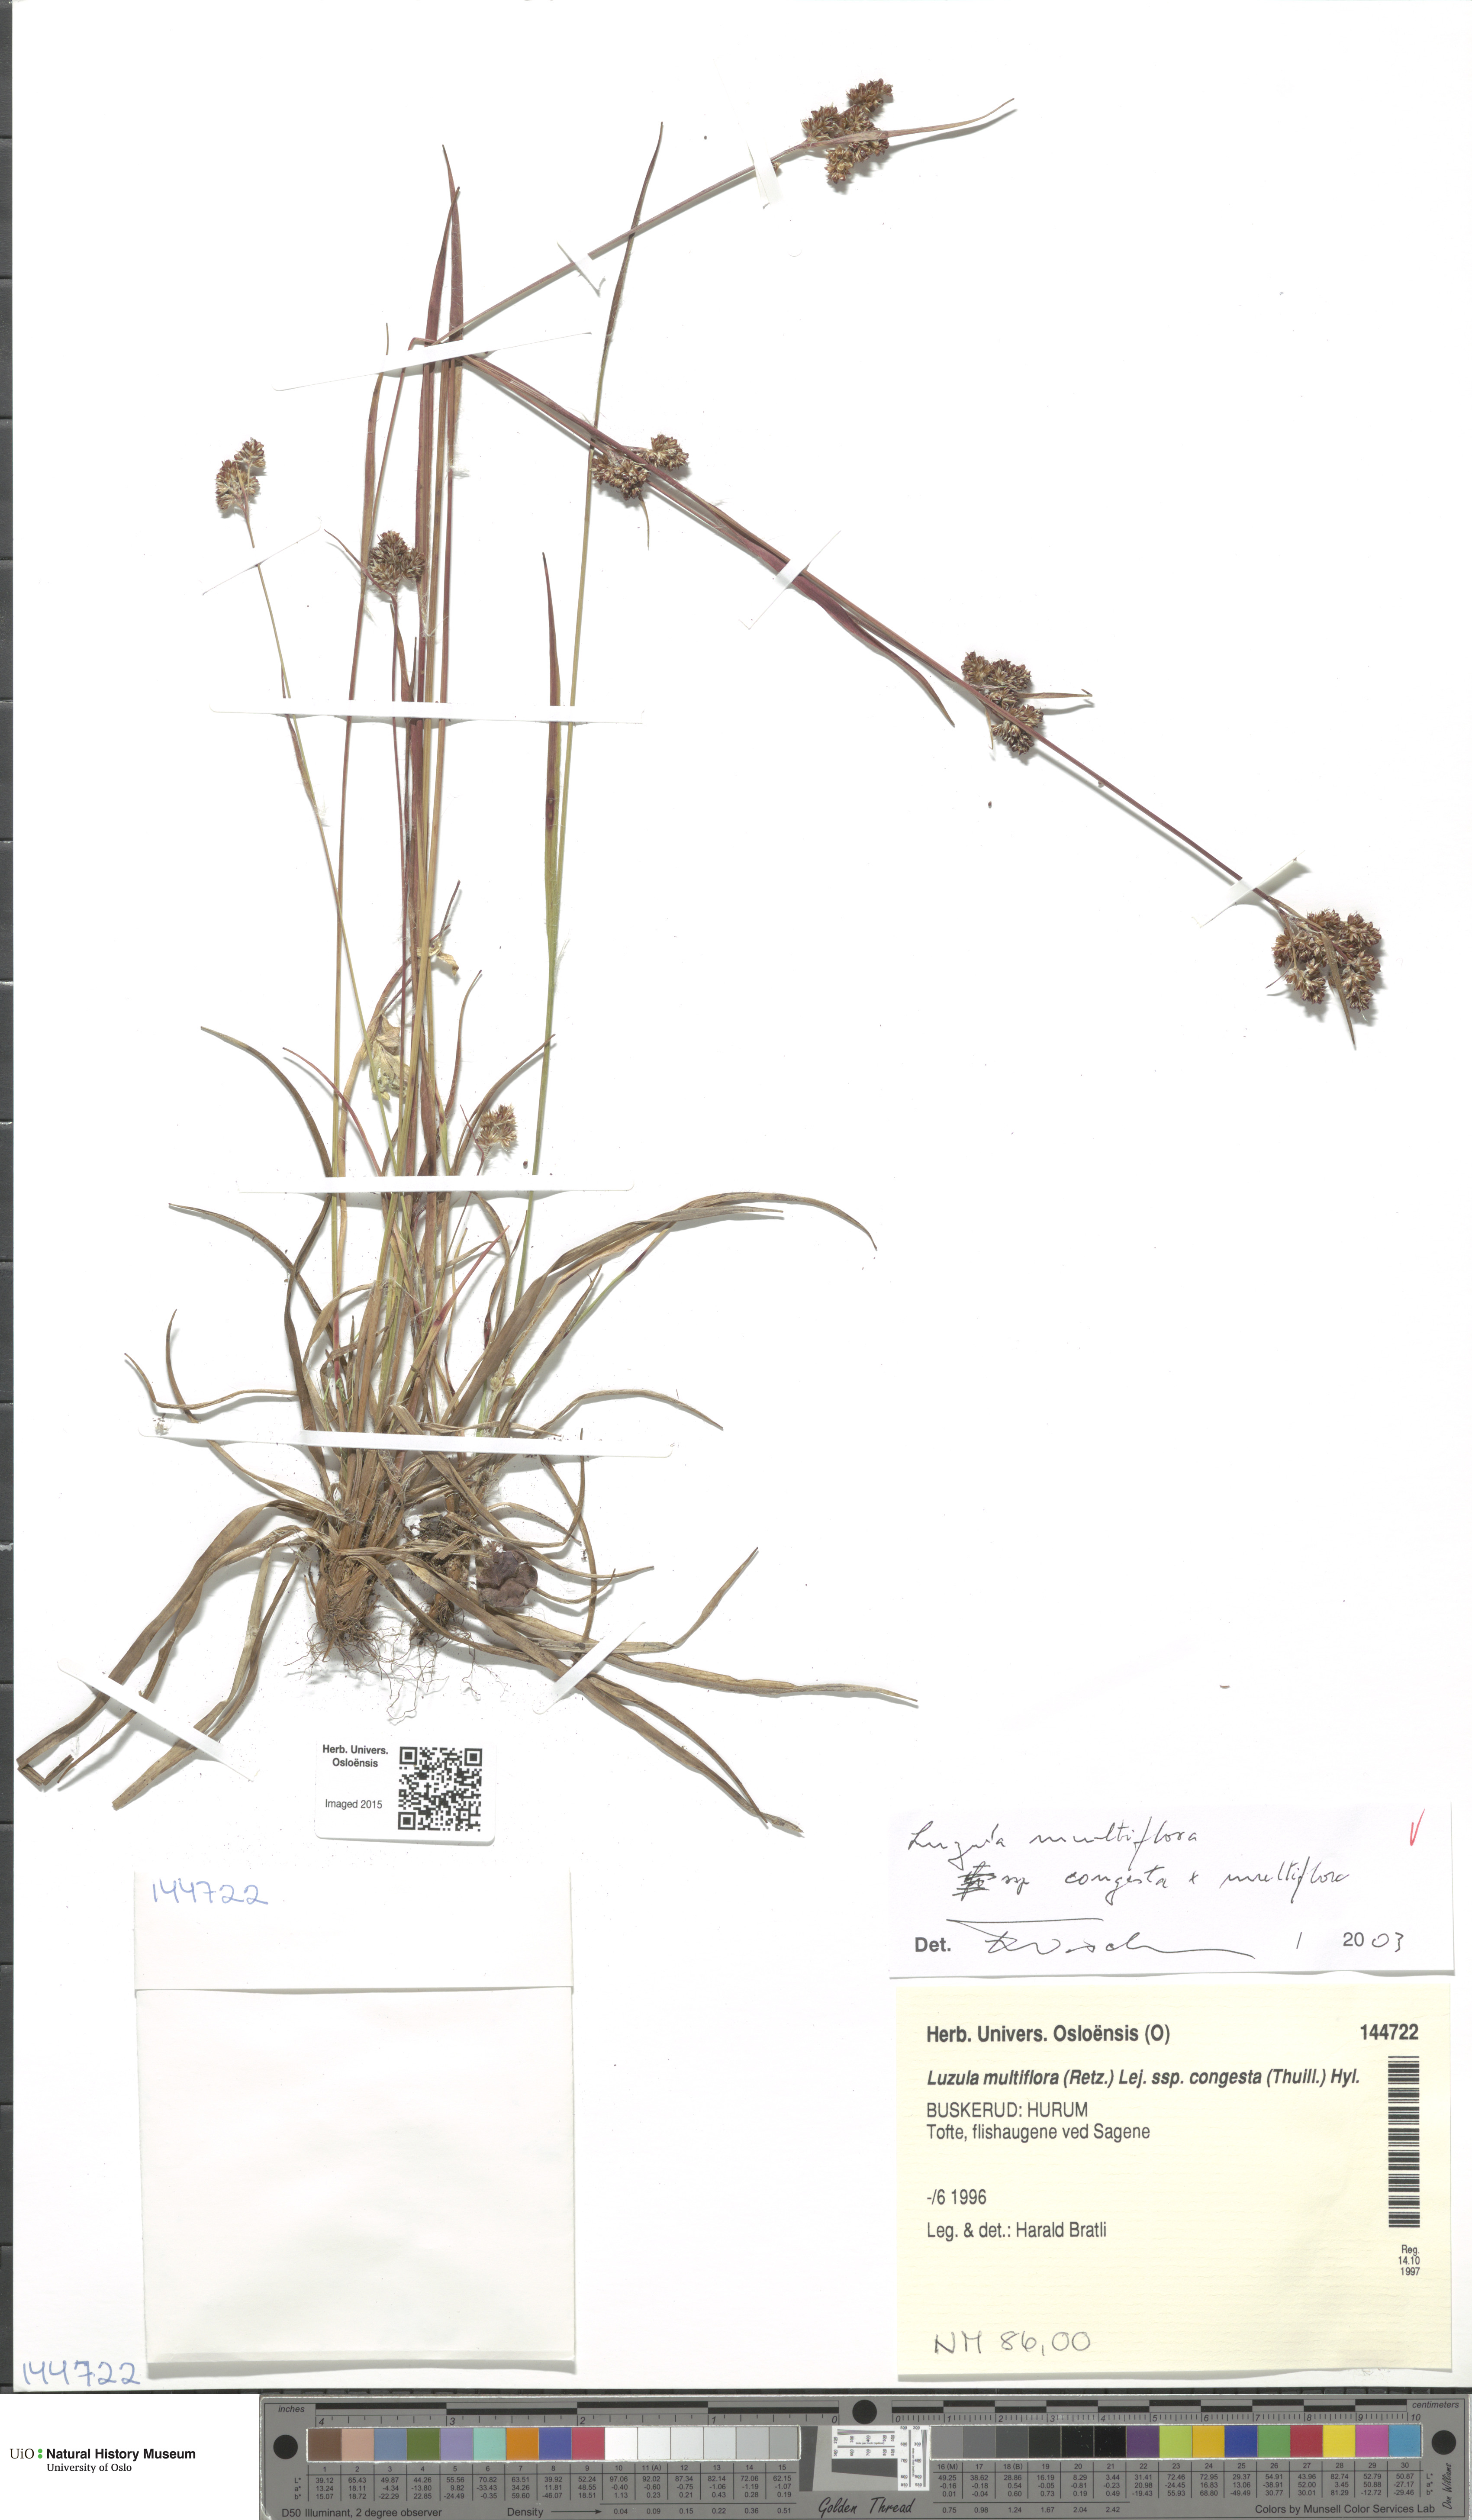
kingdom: Plantae
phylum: Tracheophyta
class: Liliopsida
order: Poales
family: Juncaceae
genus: Luzula
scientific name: Luzula
